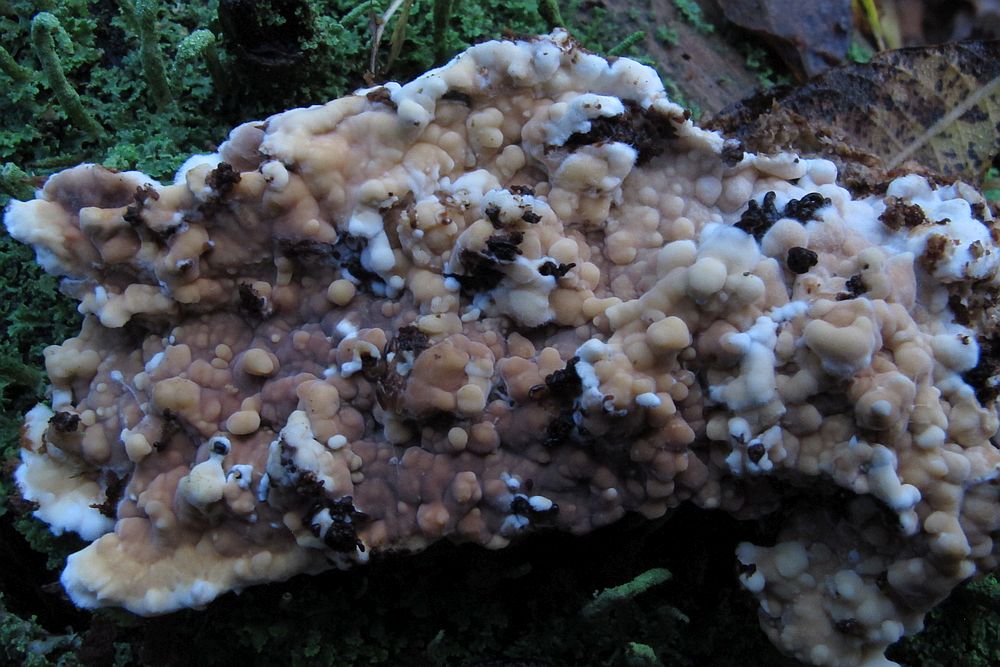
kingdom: Fungi
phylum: Basidiomycota
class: Agaricomycetes
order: Polyporales
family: Dacryobolaceae
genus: Dacryobolus
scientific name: Dacryobolus karstenii
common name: glat vulkanskorpe
